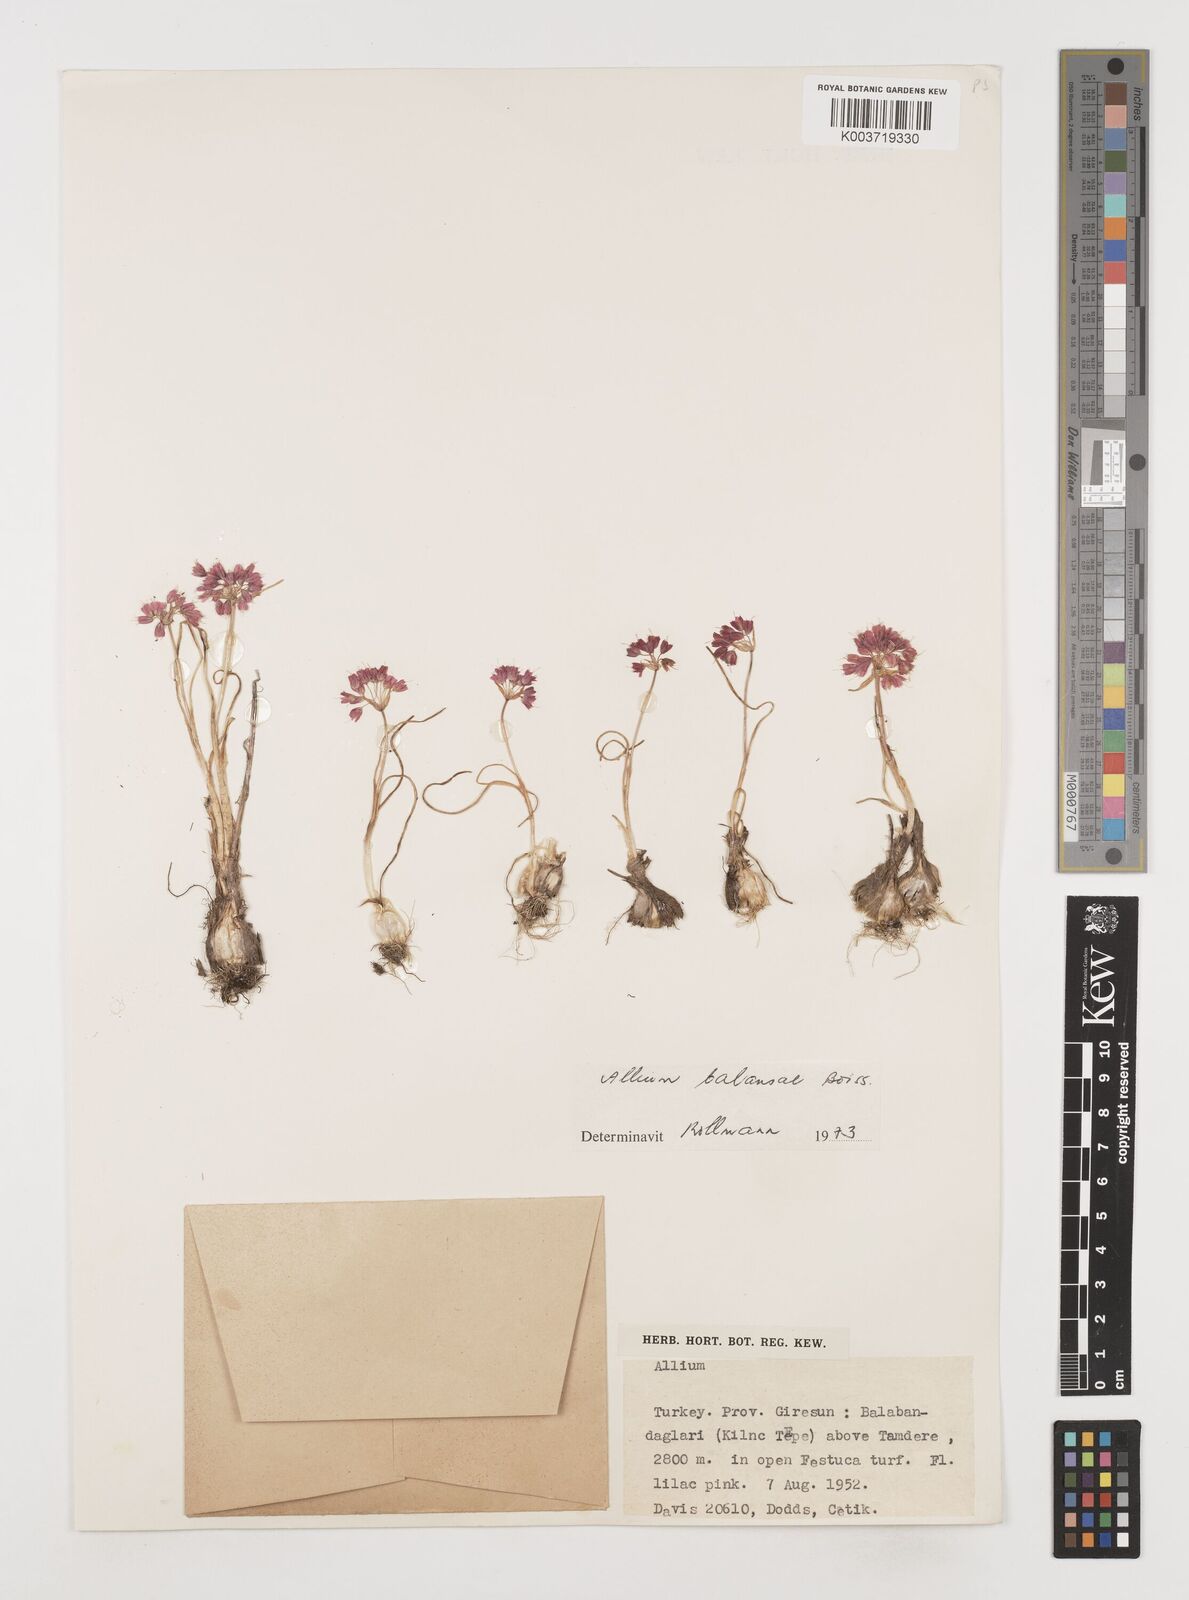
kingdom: Plantae
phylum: Tracheophyta
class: Liliopsida
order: Asparagales
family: Amaryllidaceae
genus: Allium
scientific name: Allium balansae
